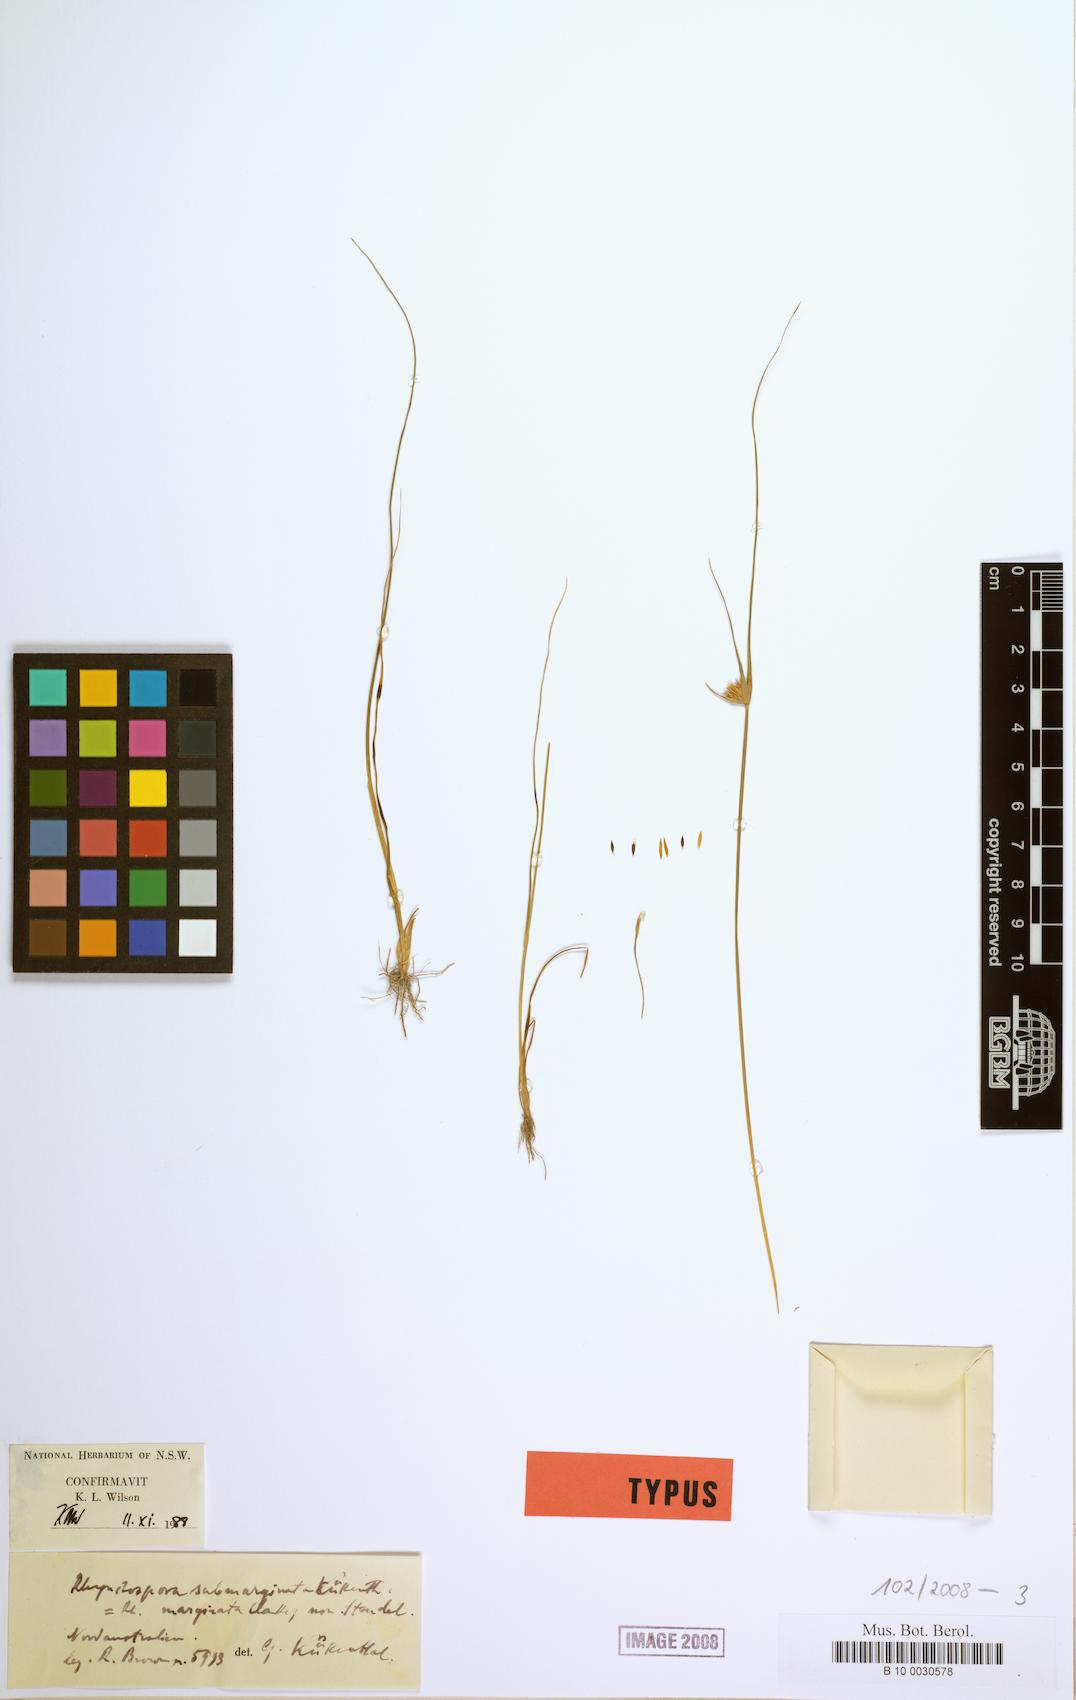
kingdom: Plantae
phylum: Tracheophyta
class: Liliopsida
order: Poales
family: Cyperaceae
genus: Rhynchospora
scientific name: Rhynchospora submarginata
